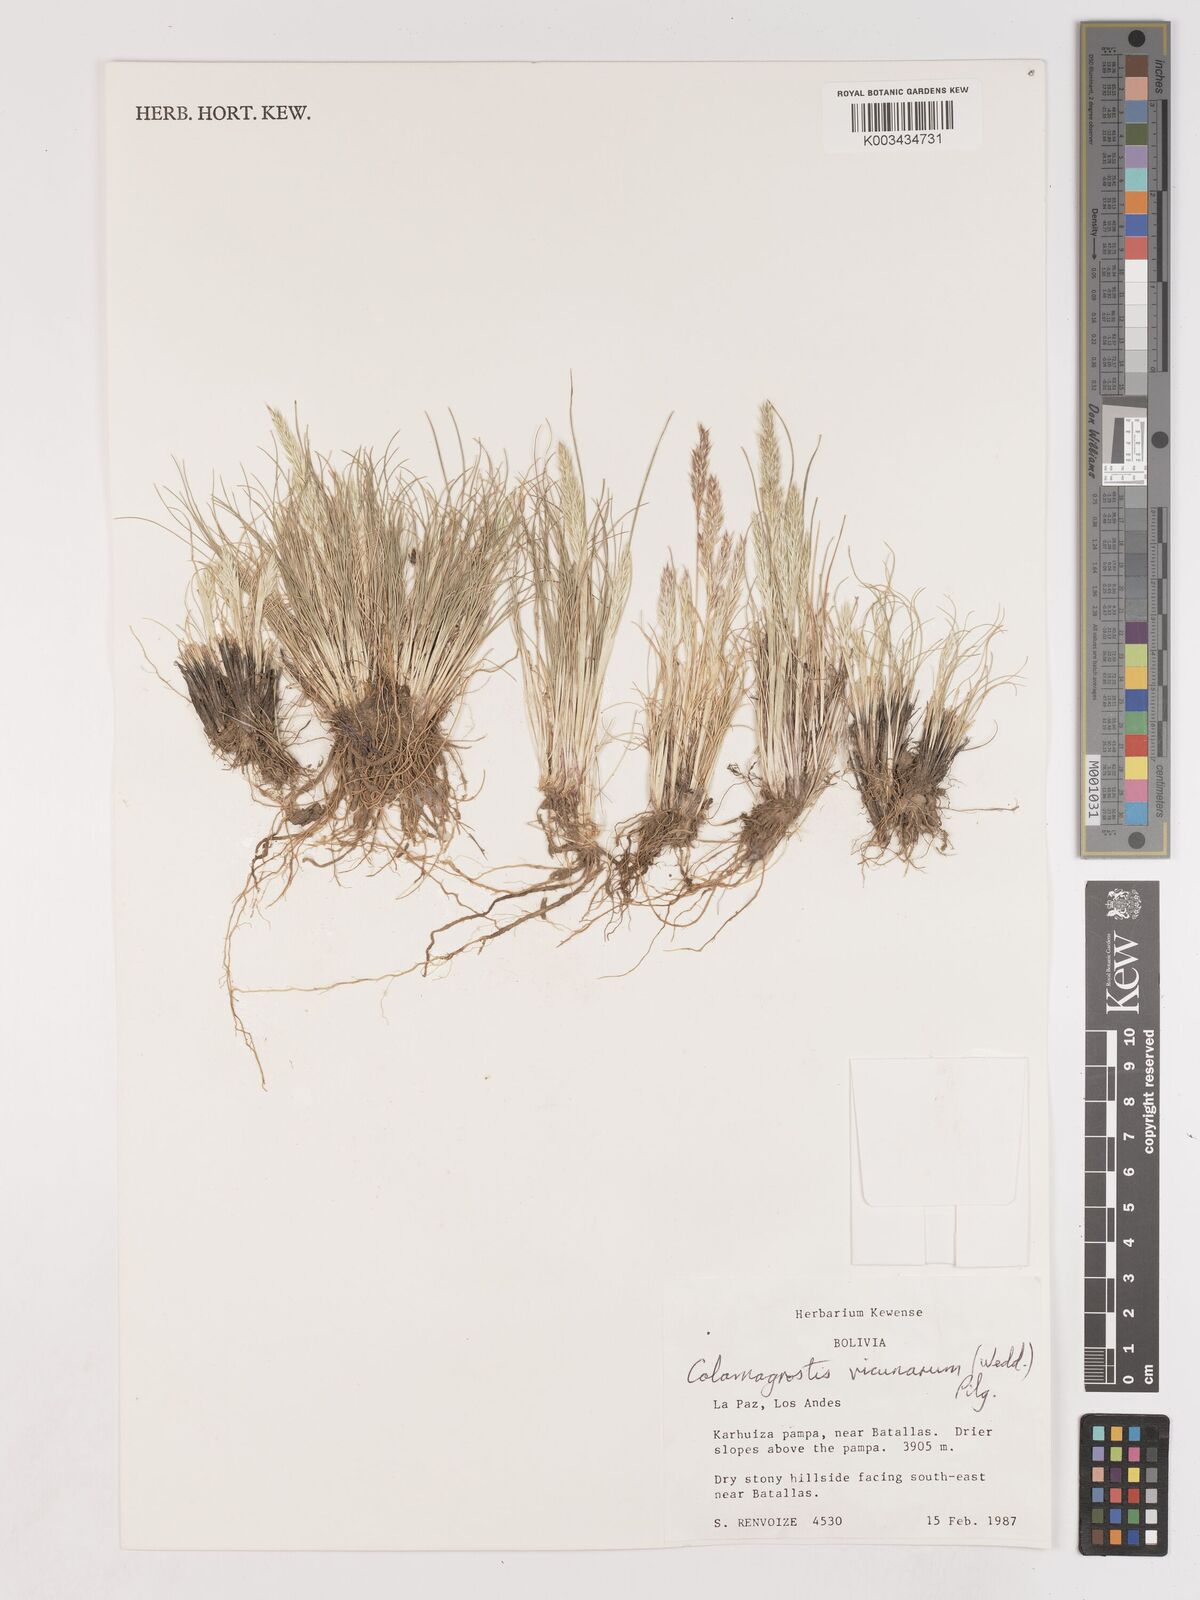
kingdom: Plantae
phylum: Tracheophyta
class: Liliopsida
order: Poales
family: Poaceae
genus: Cinnagrostis
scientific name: Cinnagrostis vicunarum
